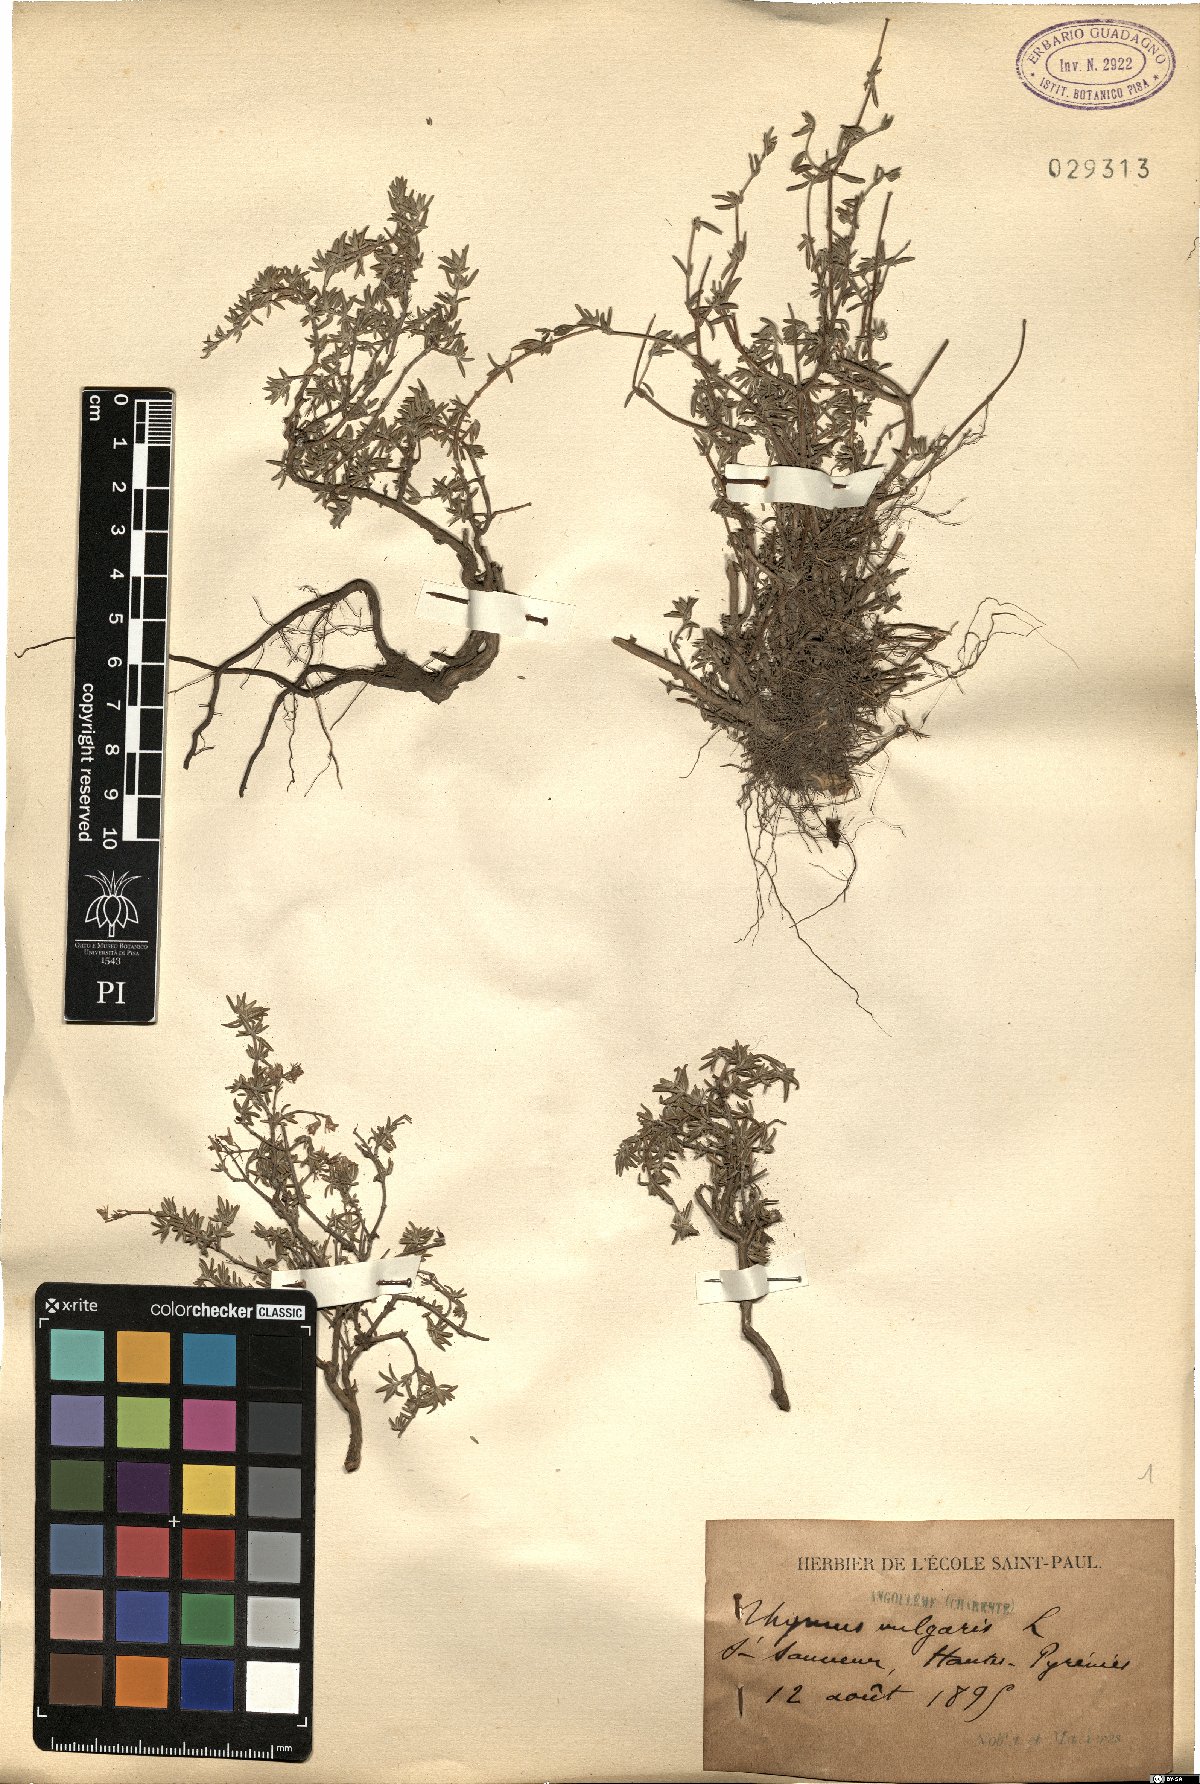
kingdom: Plantae
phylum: Tracheophyta
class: Magnoliopsida
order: Lamiales
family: Lamiaceae
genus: Thymus
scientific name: Thymus vulgaris
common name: Garden thyme
